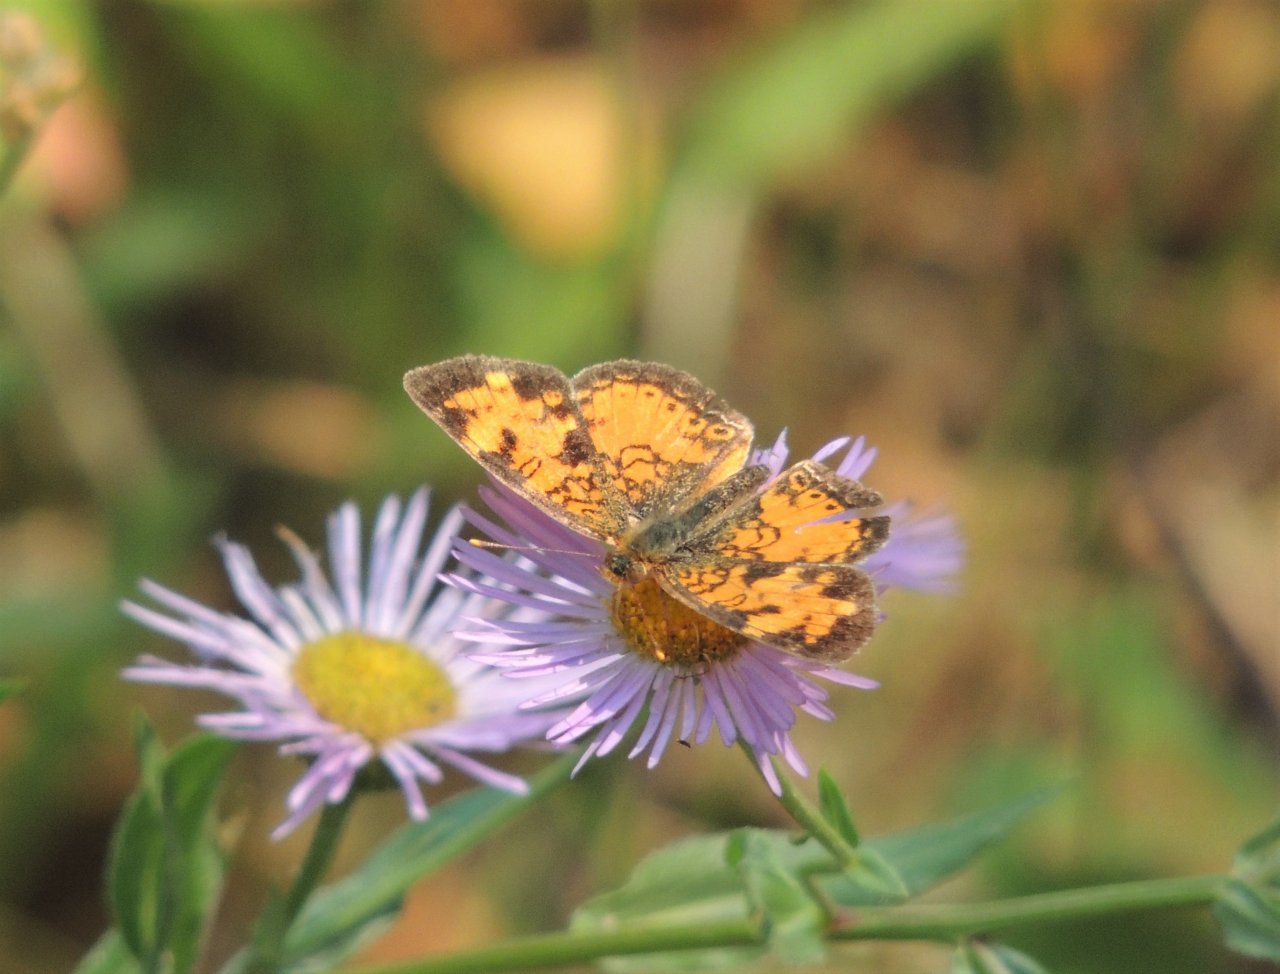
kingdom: Animalia
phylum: Arthropoda
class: Insecta
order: Lepidoptera
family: Nymphalidae
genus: Phyciodes
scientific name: Phyciodes tharos
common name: Northern Crescent
